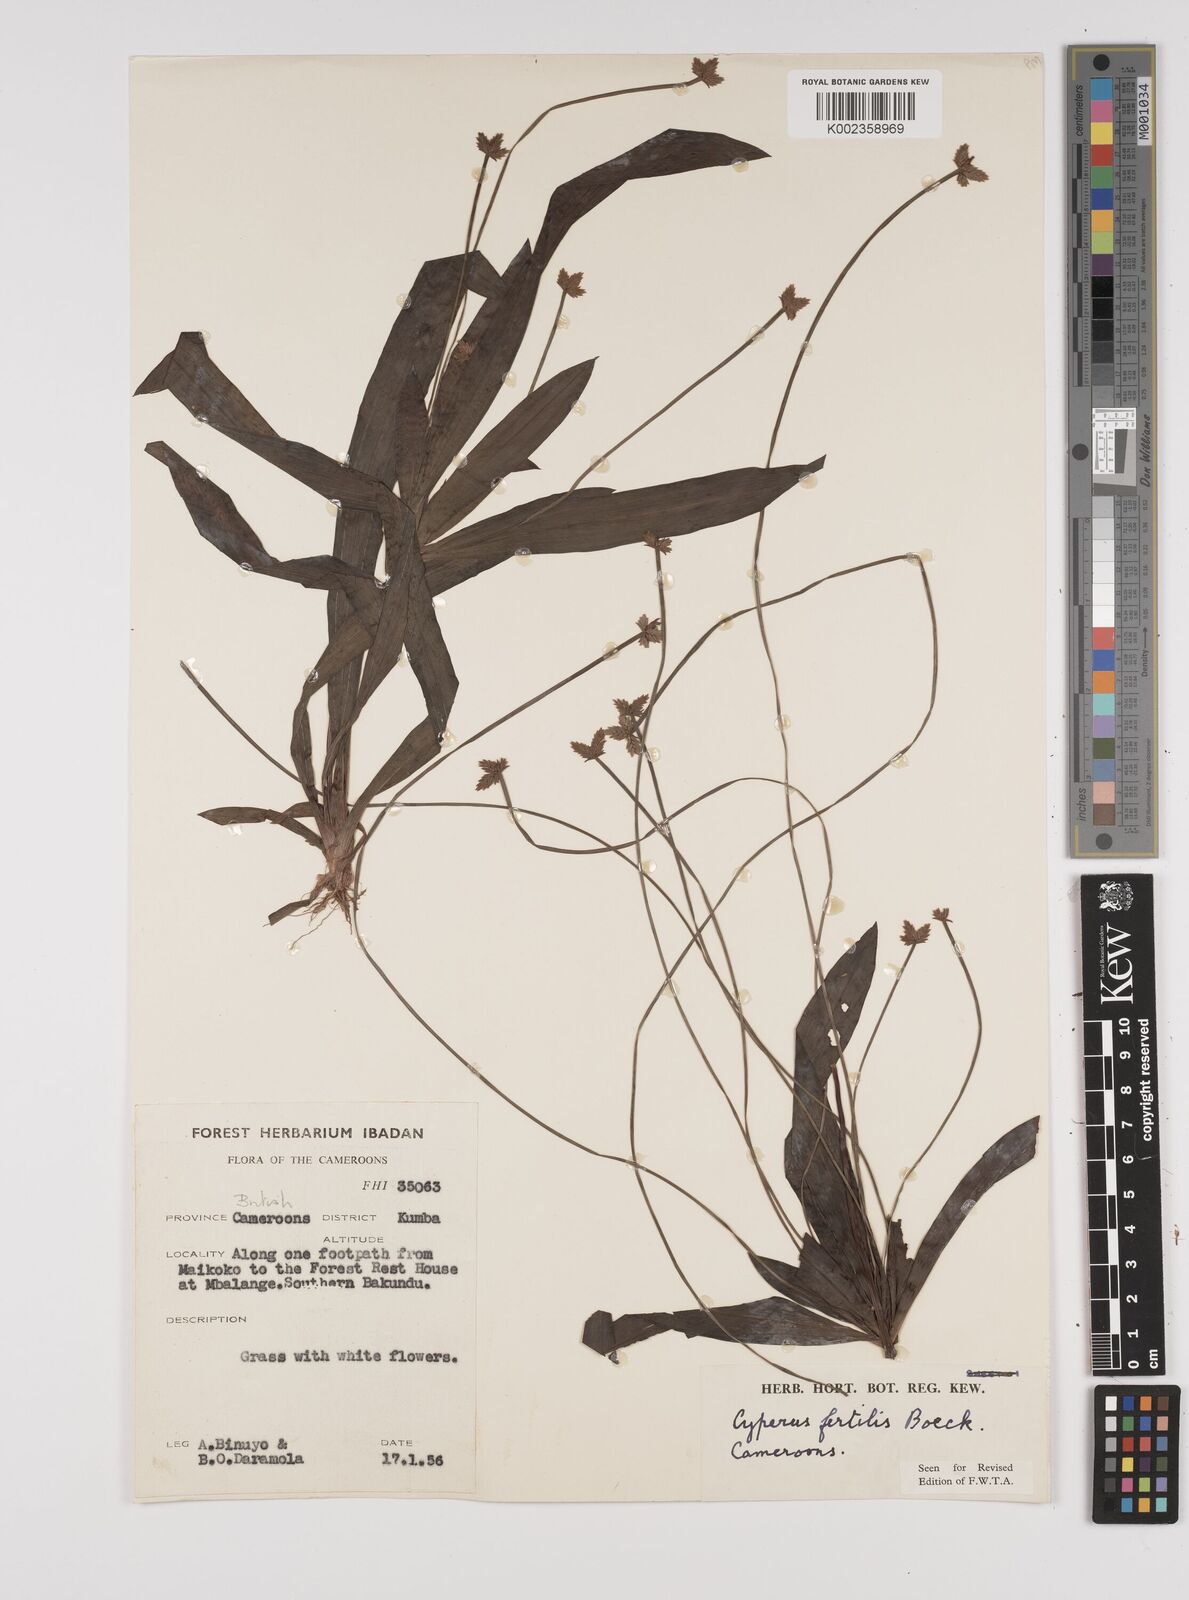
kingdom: Plantae
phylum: Tracheophyta
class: Liliopsida
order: Poales
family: Cyperaceae
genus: Cyperus
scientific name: Cyperus fertilis
